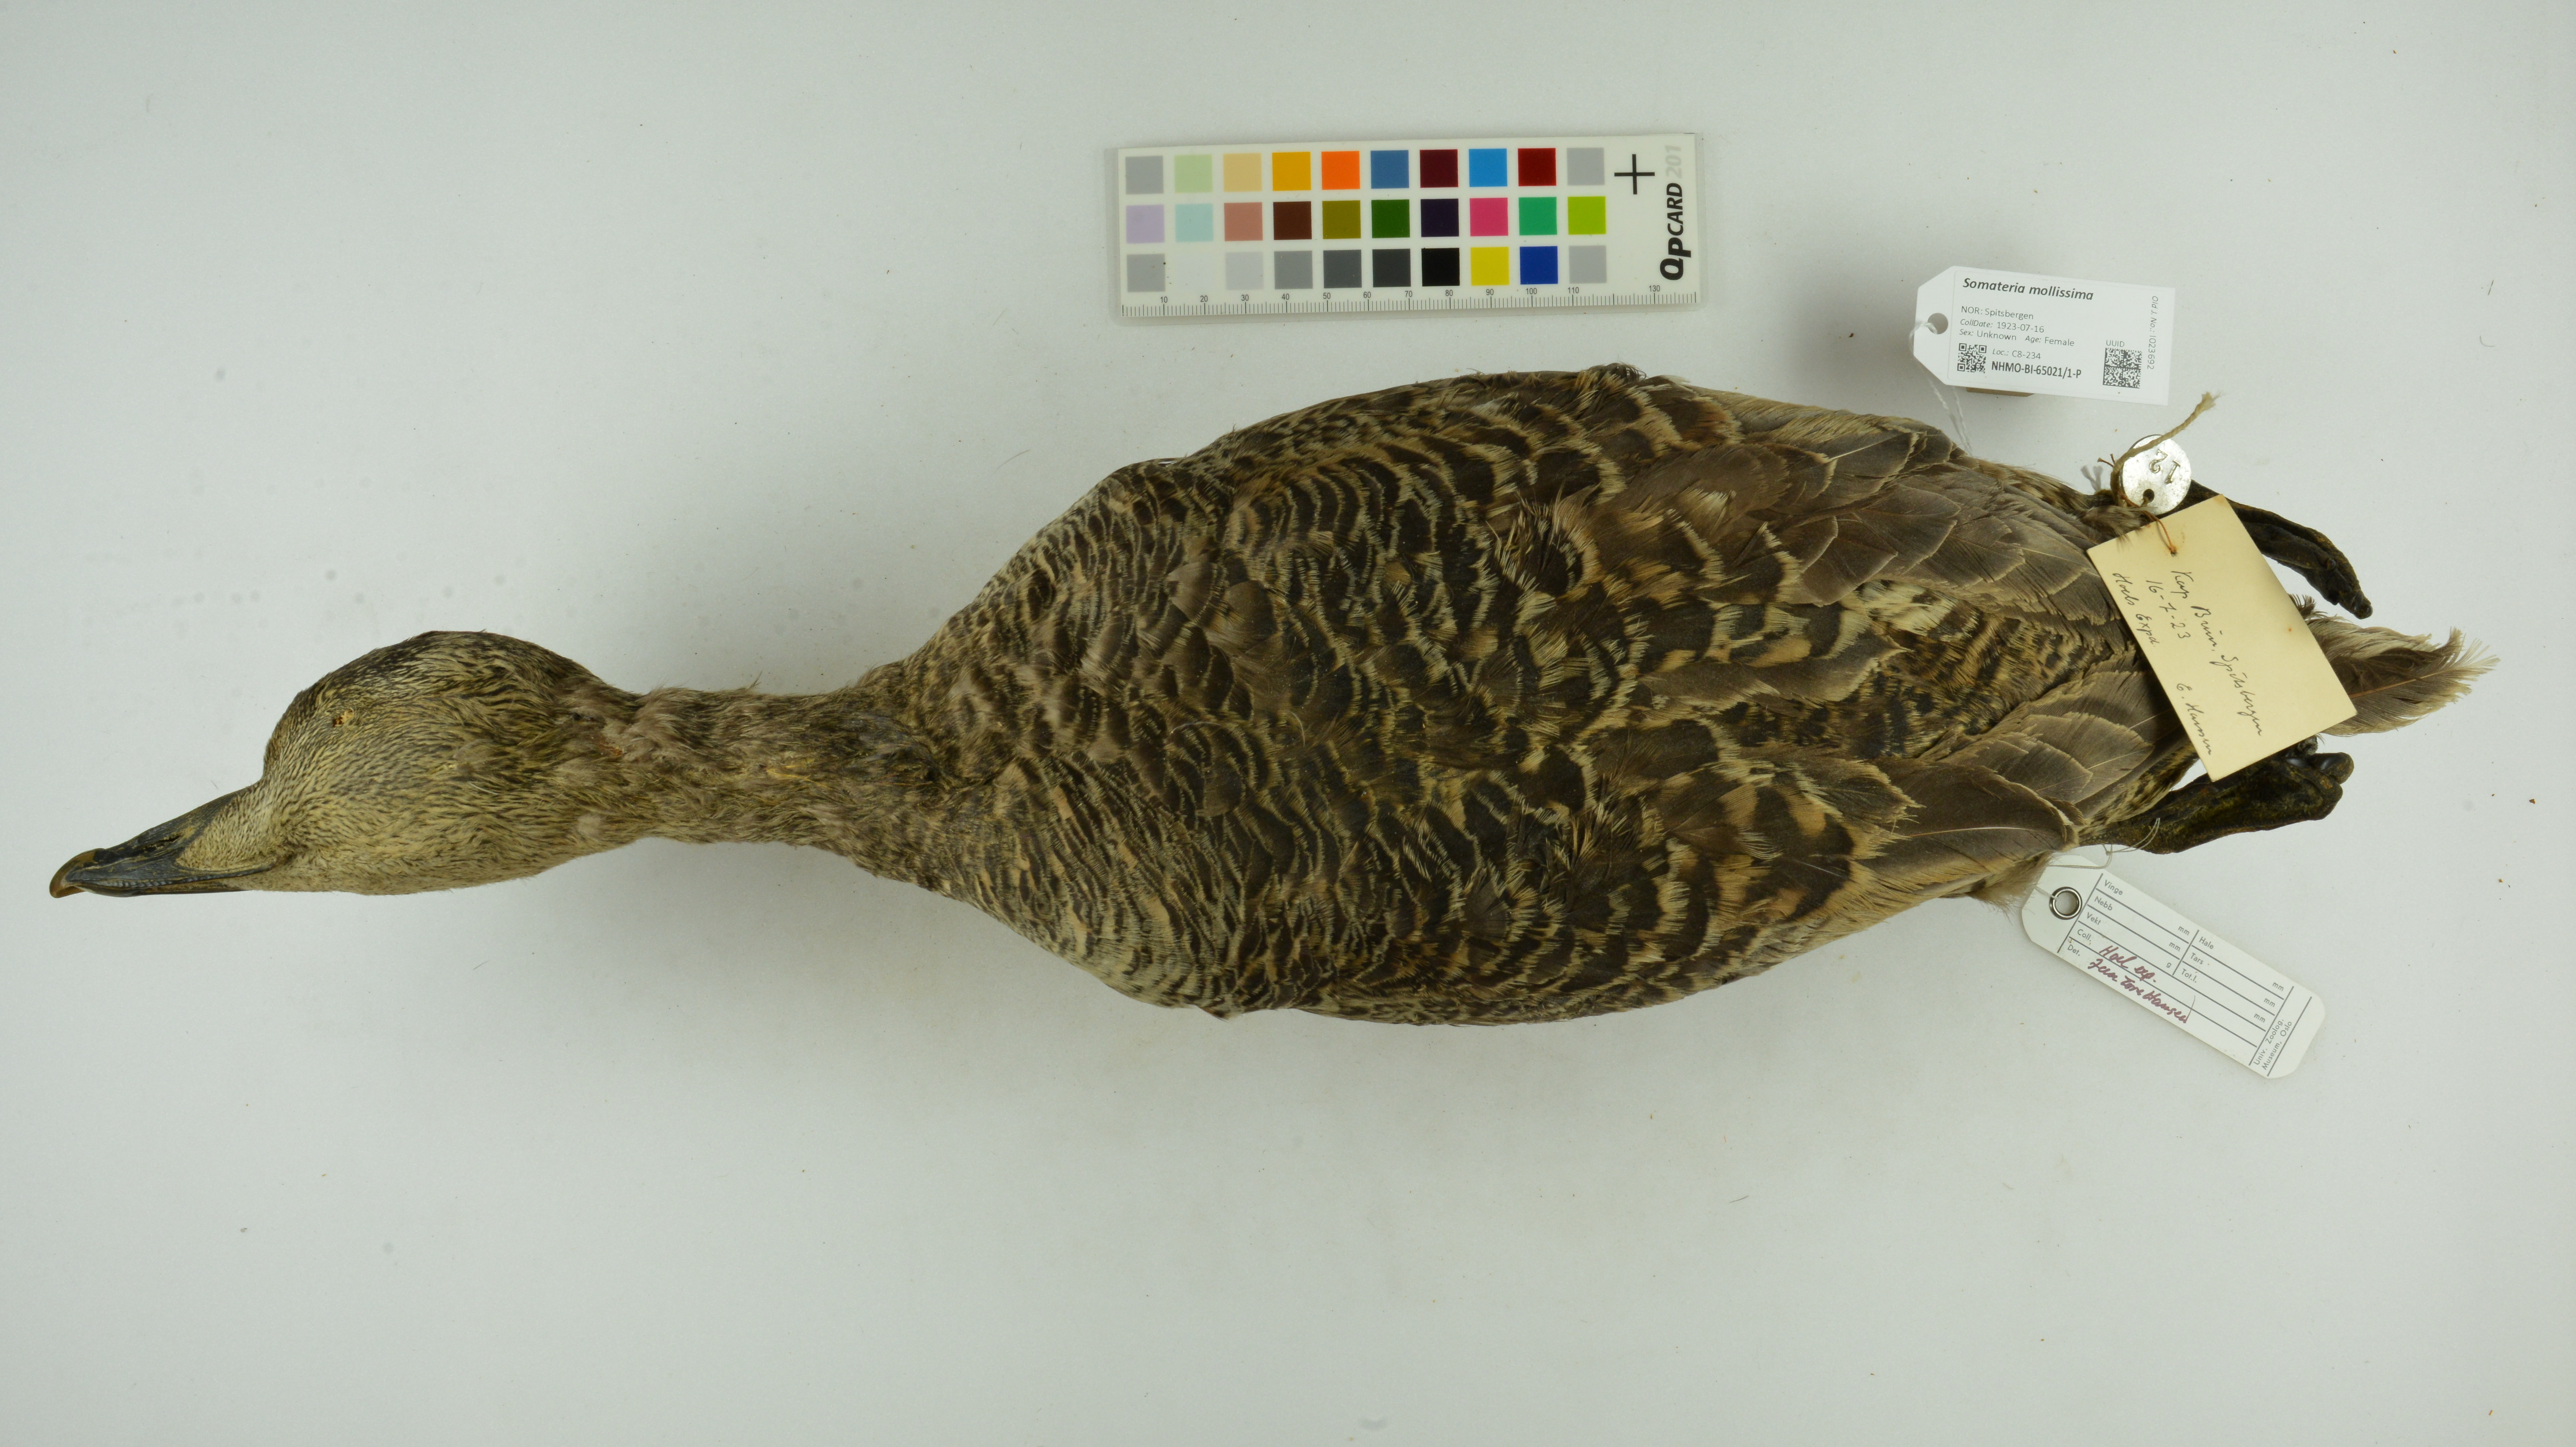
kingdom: Animalia
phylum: Chordata
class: Aves
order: Anseriformes
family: Anatidae
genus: Somateria
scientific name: Somateria mollissima
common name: Common eider
